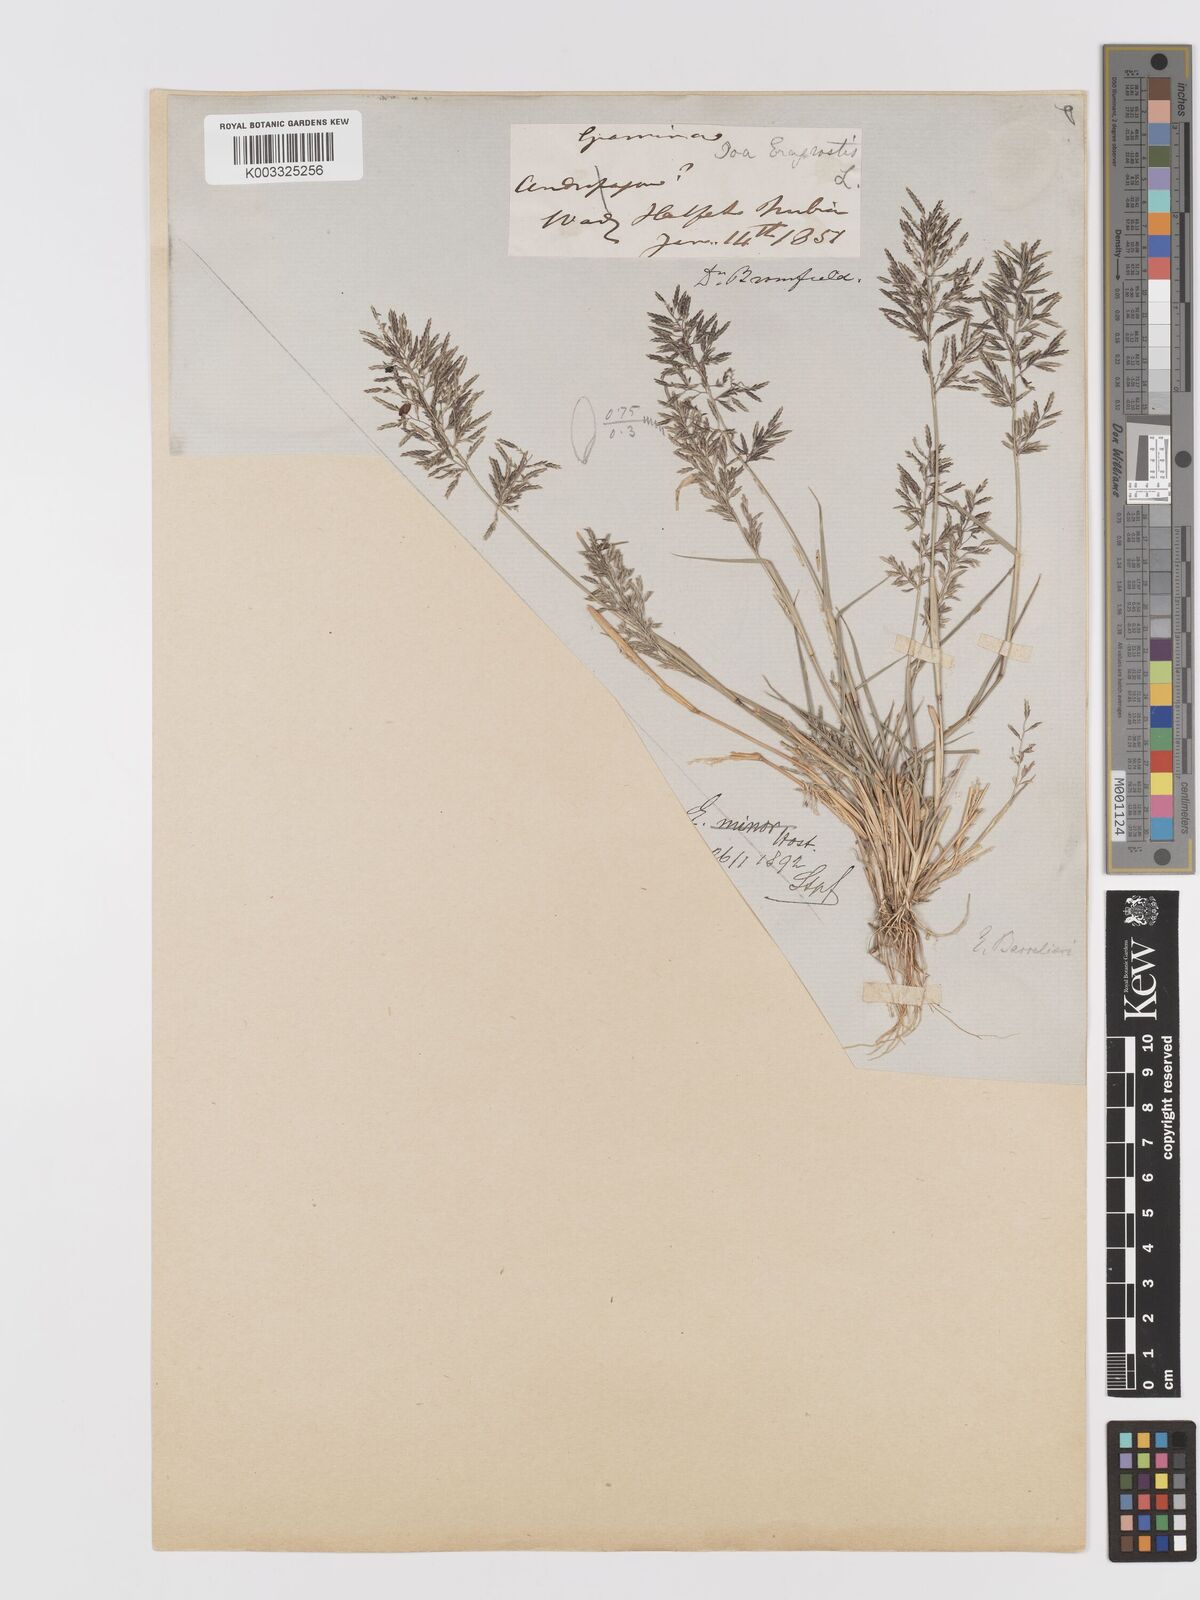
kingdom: Plantae
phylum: Tracheophyta
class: Liliopsida
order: Poales
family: Poaceae
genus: Eragrostis
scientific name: Eragrostis barrelieri
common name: Mediterranean lovegrass
